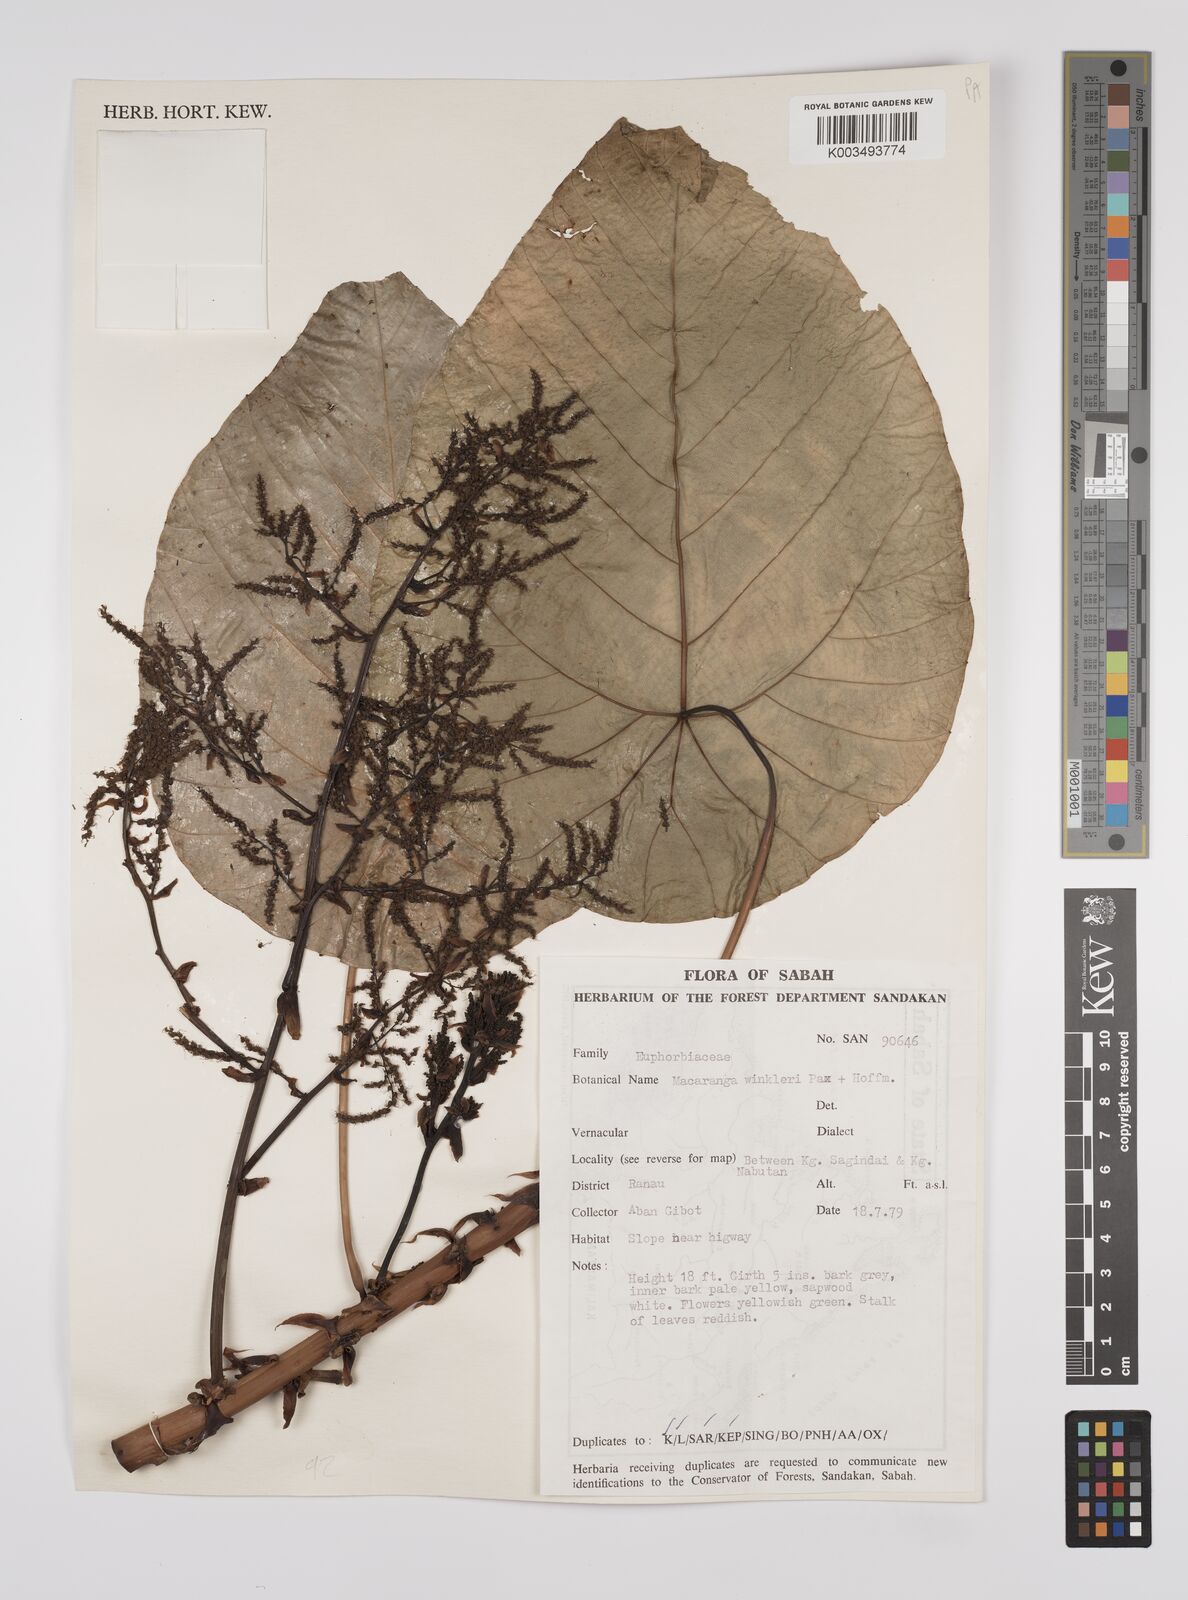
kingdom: Plantae
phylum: Tracheophyta
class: Magnoliopsida
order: Malpighiales
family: Euphorbiaceae
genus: Macaranga
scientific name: Macaranga winkleri
